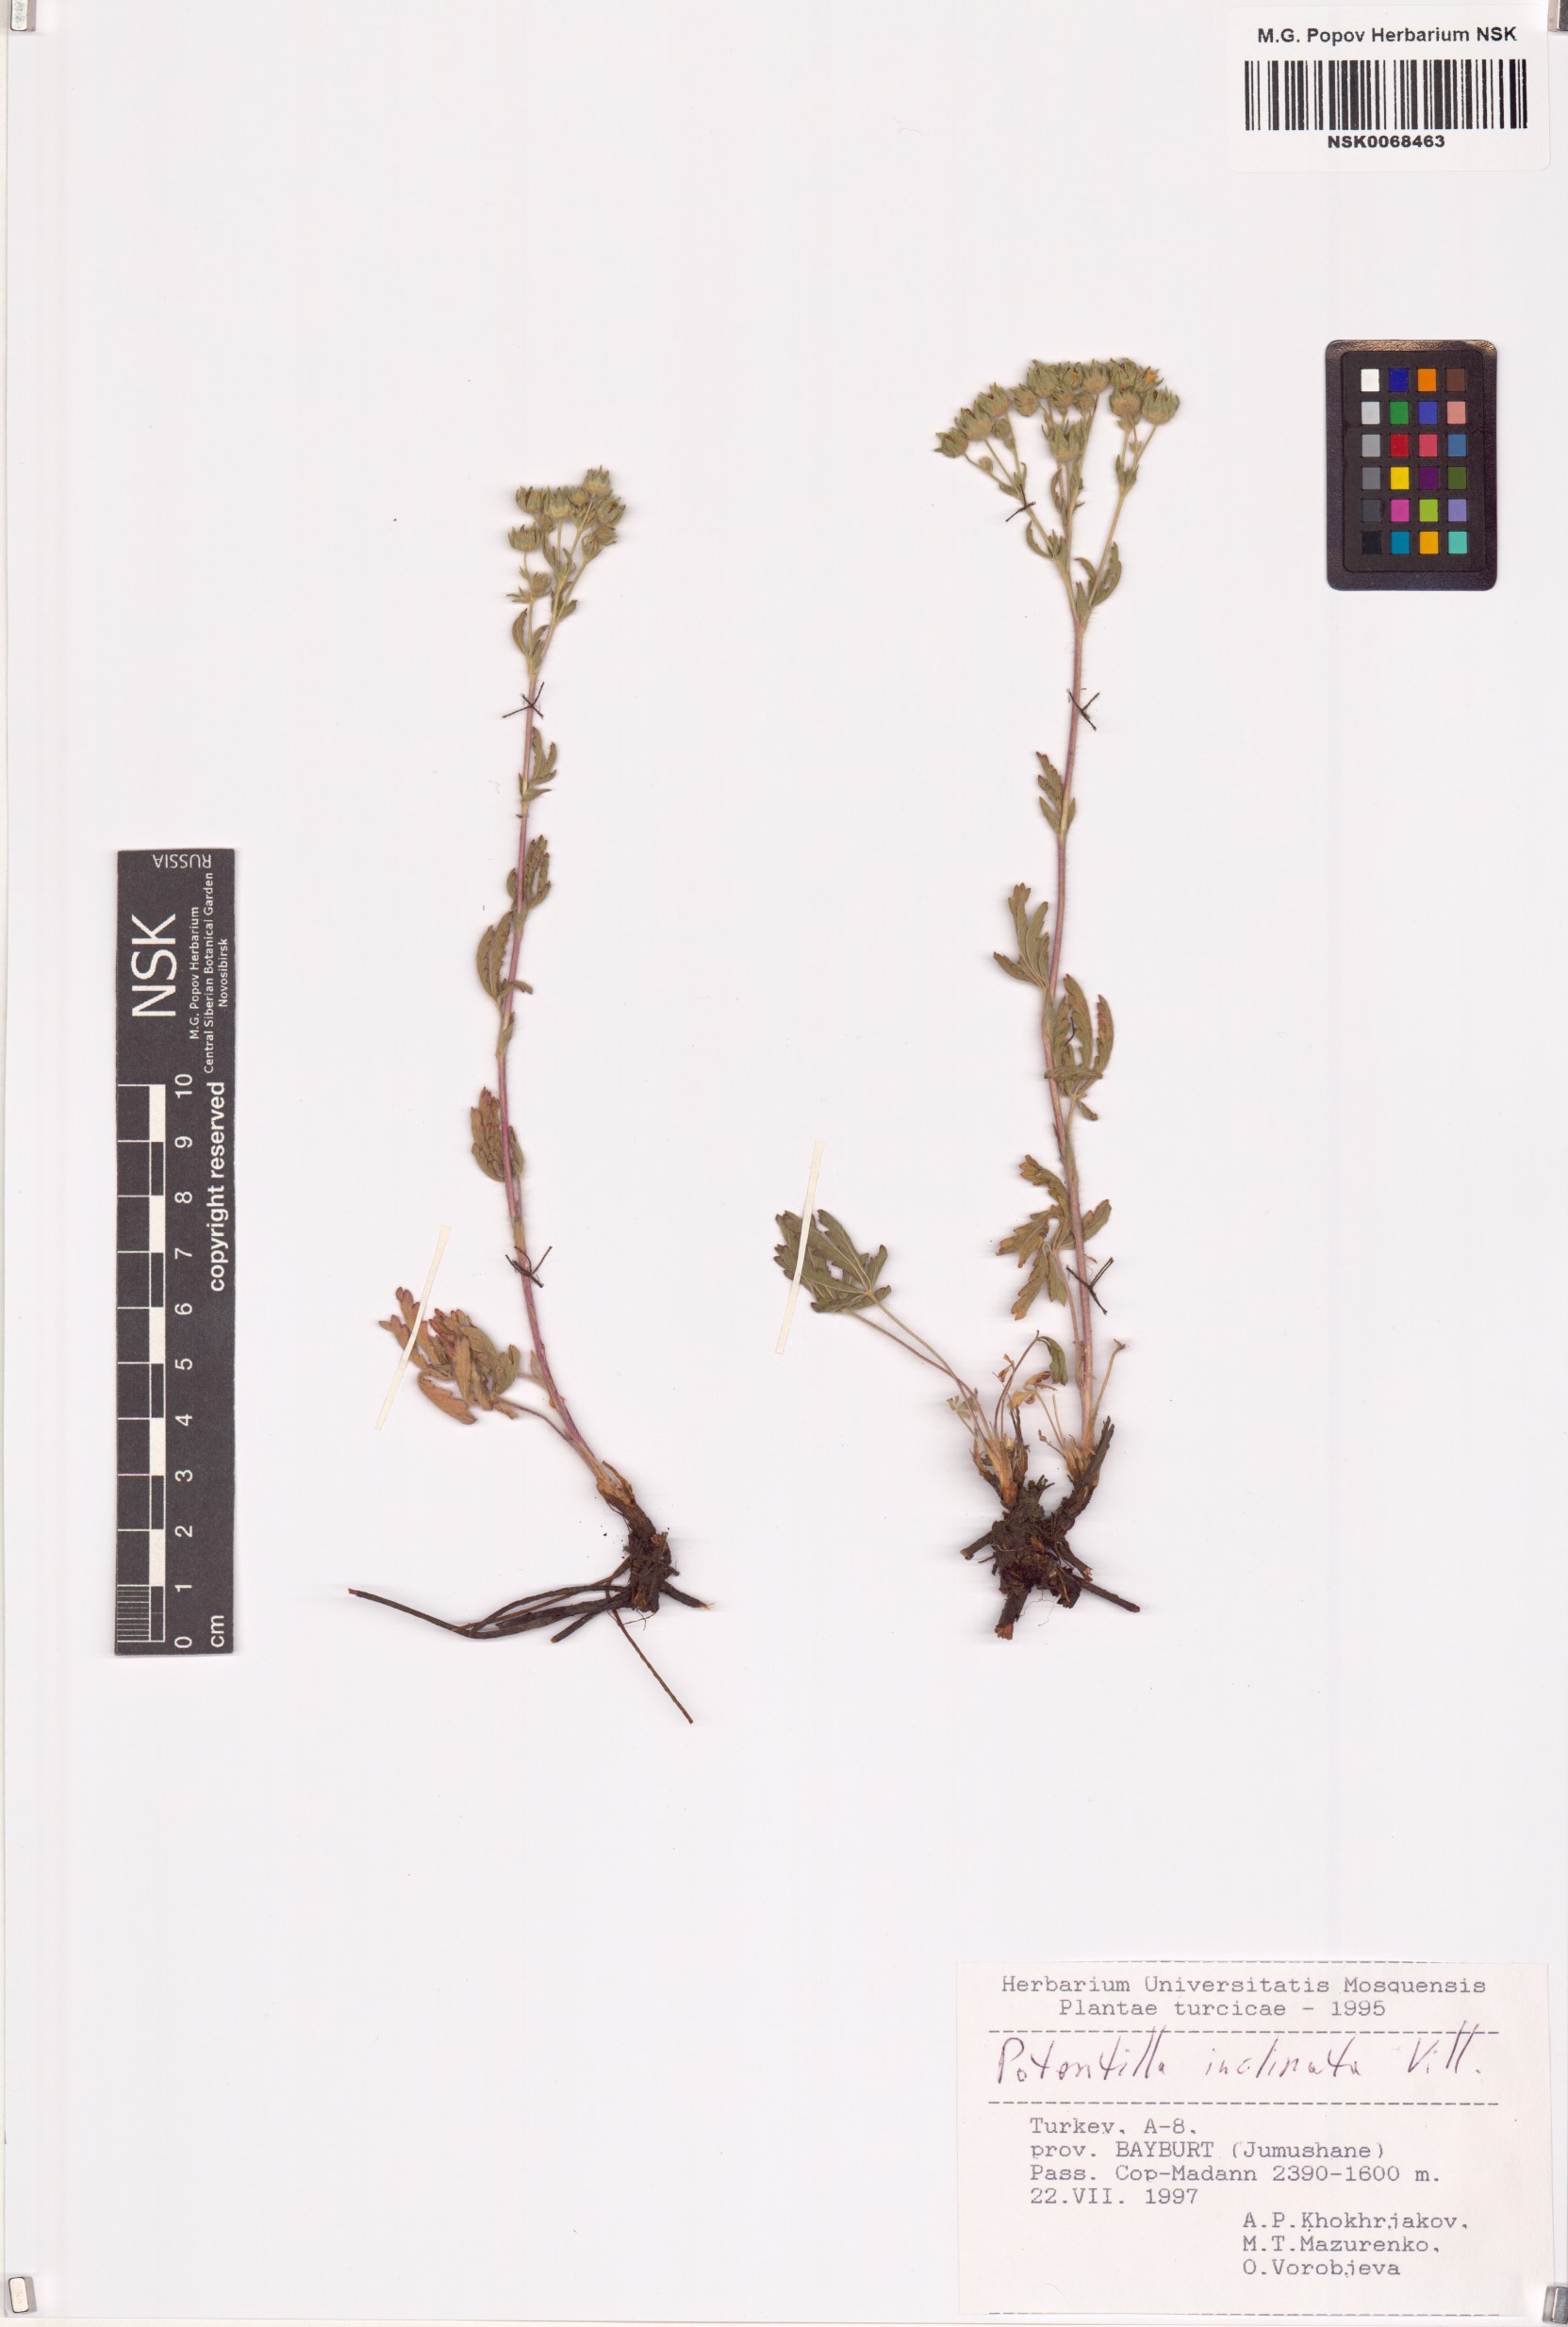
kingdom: Plantae
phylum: Tracheophyta
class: Magnoliopsida
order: Rosales
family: Rosaceae
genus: Potentilla
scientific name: Potentilla inclinata
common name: Grey cinquefoil
